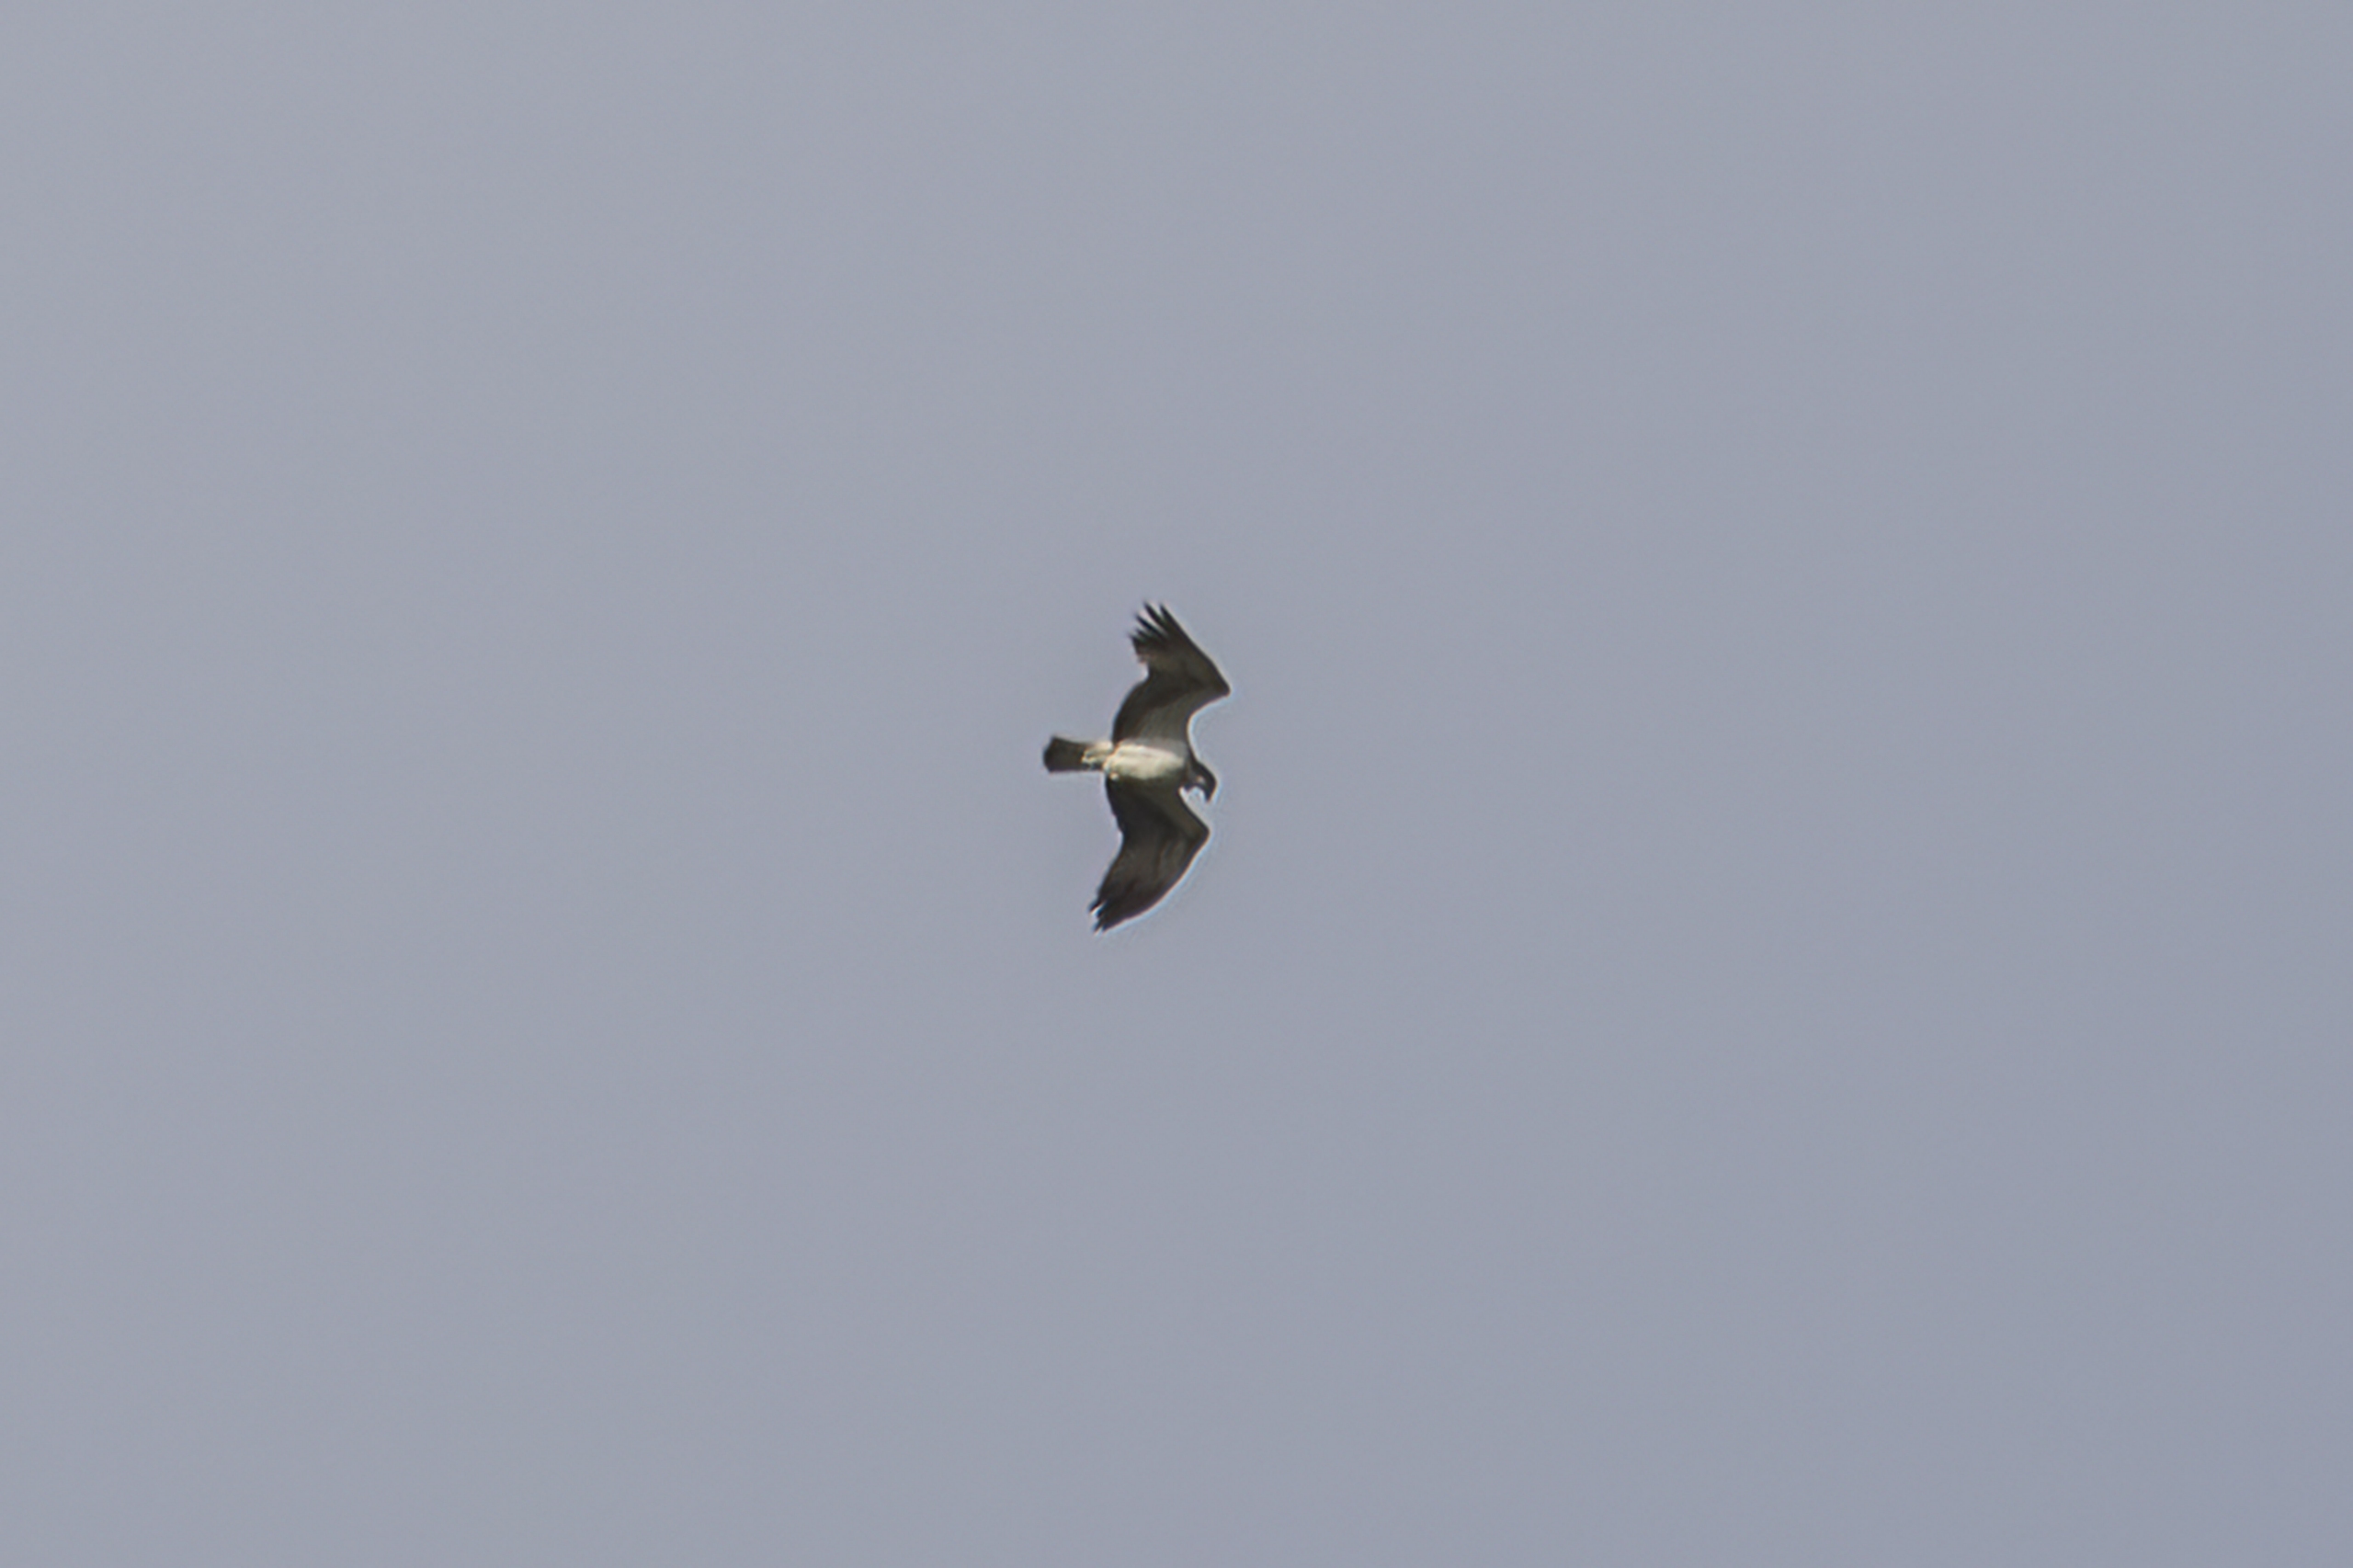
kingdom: Animalia
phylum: Chordata
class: Aves
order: Accipitriformes
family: Pandionidae
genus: Pandion
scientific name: Pandion haliaetus
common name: Fiskeørn
